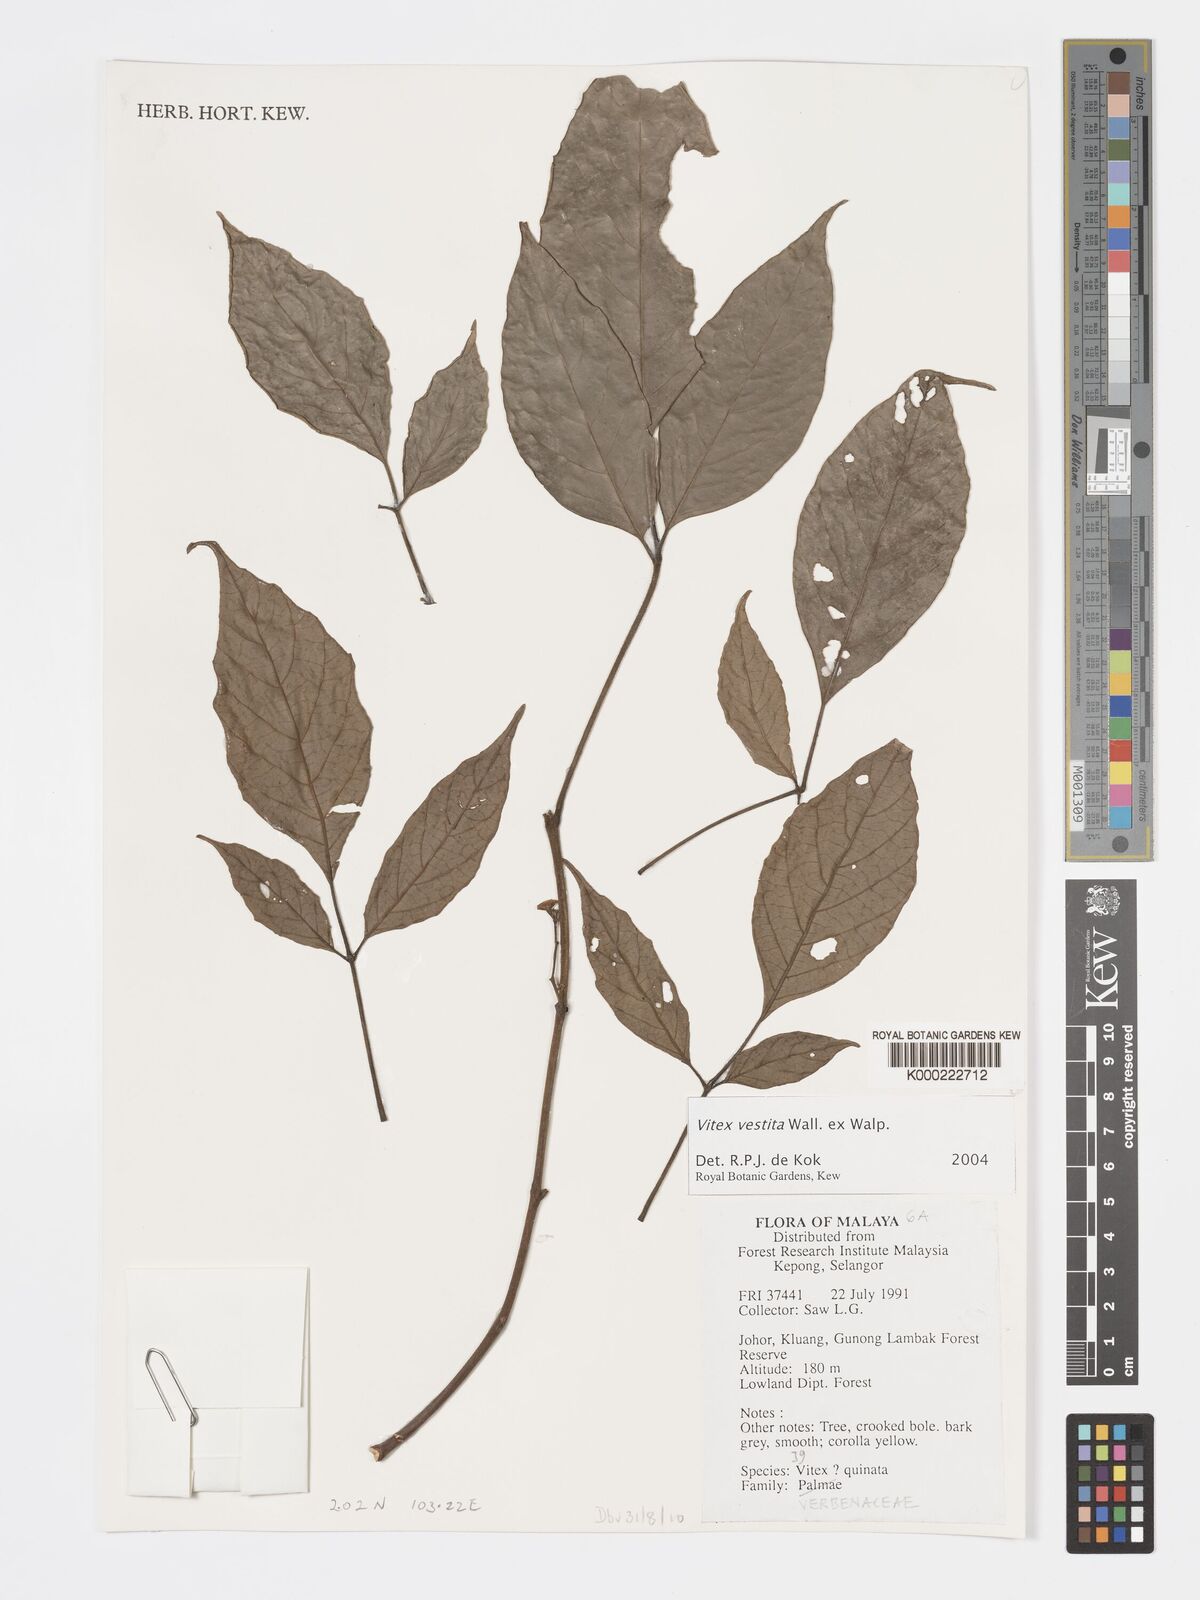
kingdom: Plantae
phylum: Tracheophyta
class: Magnoliopsida
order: Lamiales
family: Lamiaceae
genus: Vitex
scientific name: Vitex vestita
